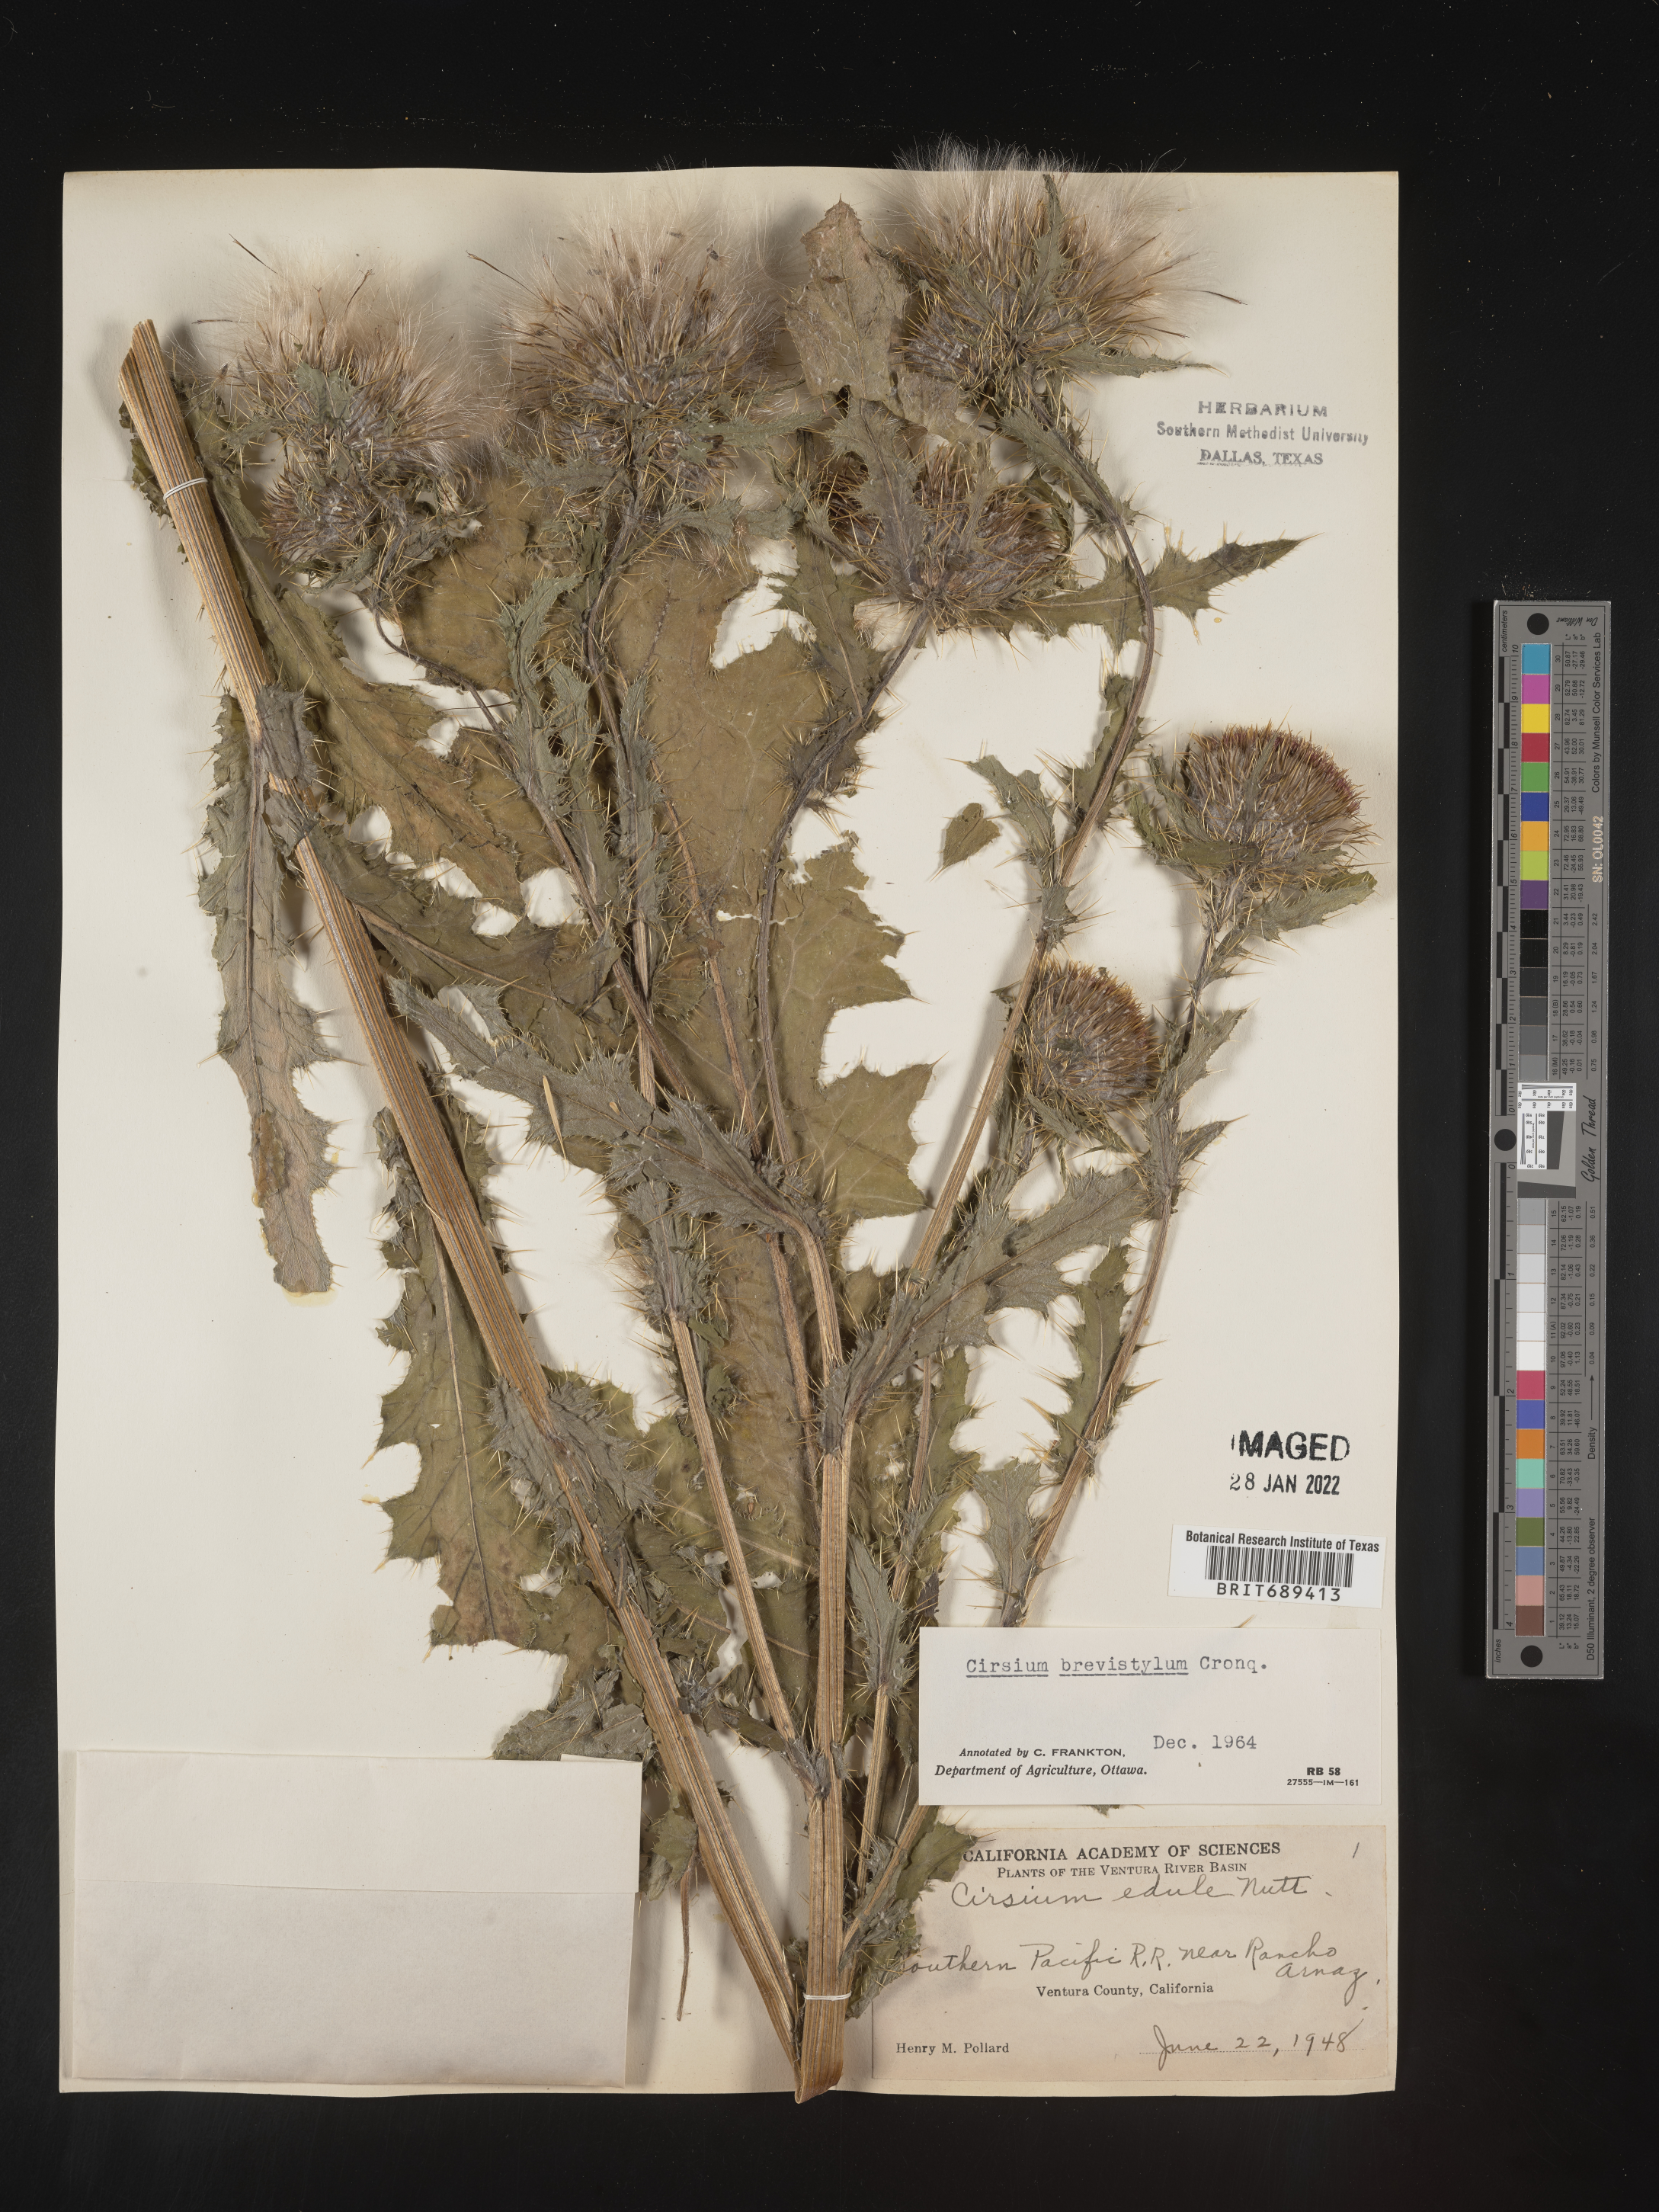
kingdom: Plantae
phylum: Tracheophyta
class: Magnoliopsida
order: Asterales
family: Asteraceae
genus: Cirsium
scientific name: Cirsium
